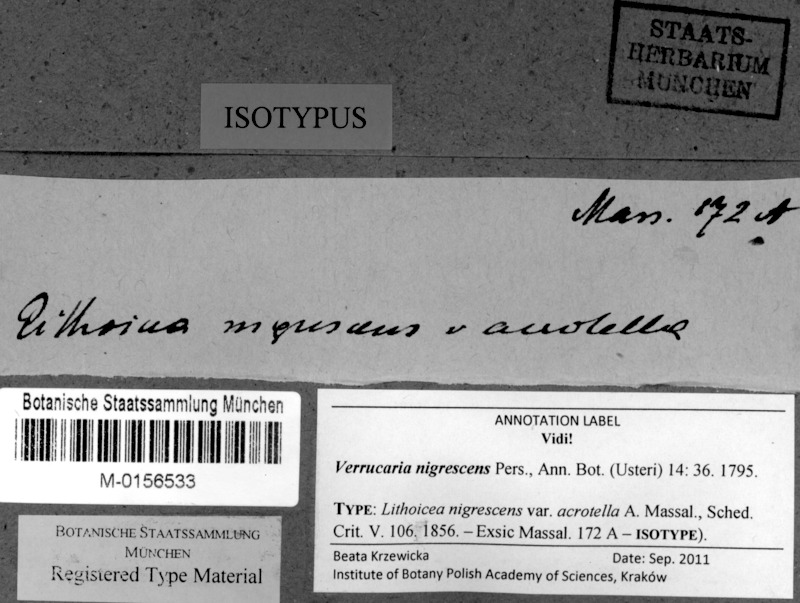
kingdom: Fungi
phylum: Ascomycota
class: Eurotiomycetes
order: Verrucariales
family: Verrucariaceae
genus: Verrucaria
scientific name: Verrucaria nigrescens
